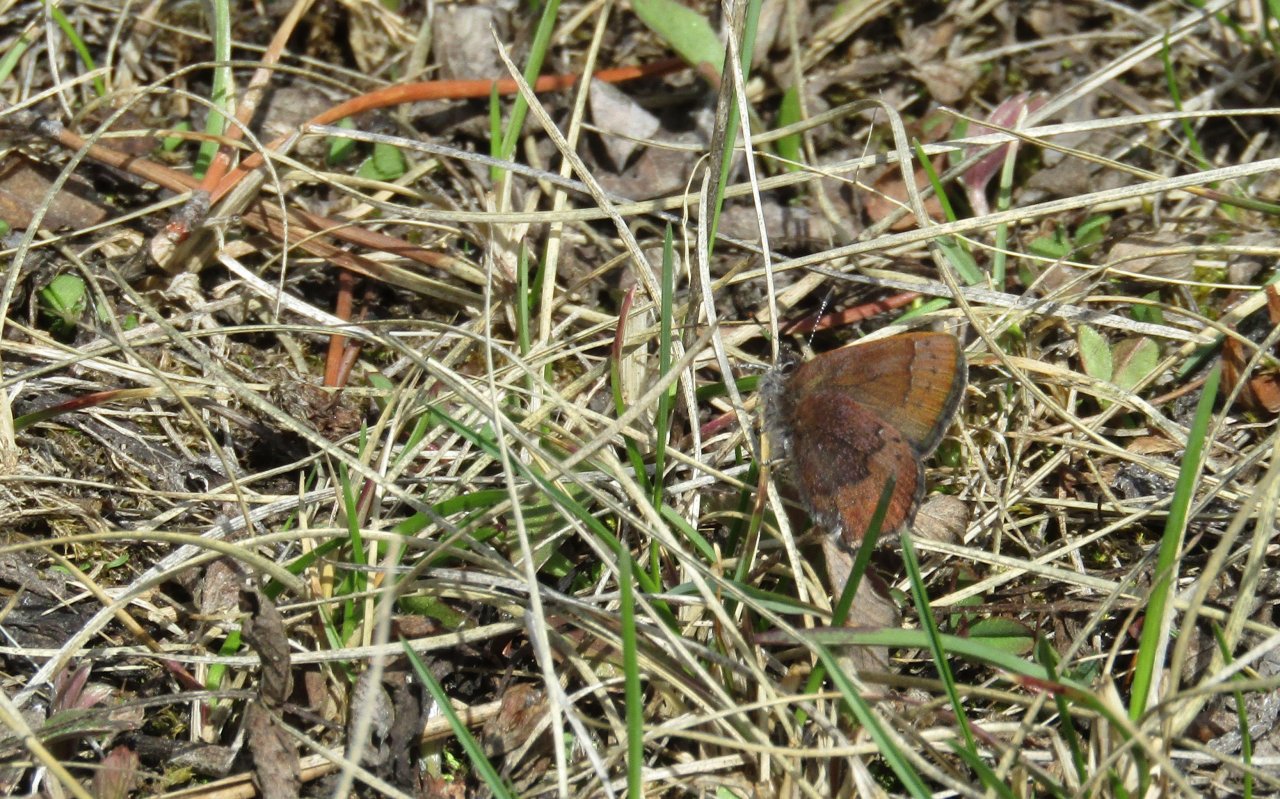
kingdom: Animalia
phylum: Arthropoda
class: Insecta
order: Lepidoptera
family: Lycaenidae
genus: Incisalia
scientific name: Incisalia irioides
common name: Brown Elfin
